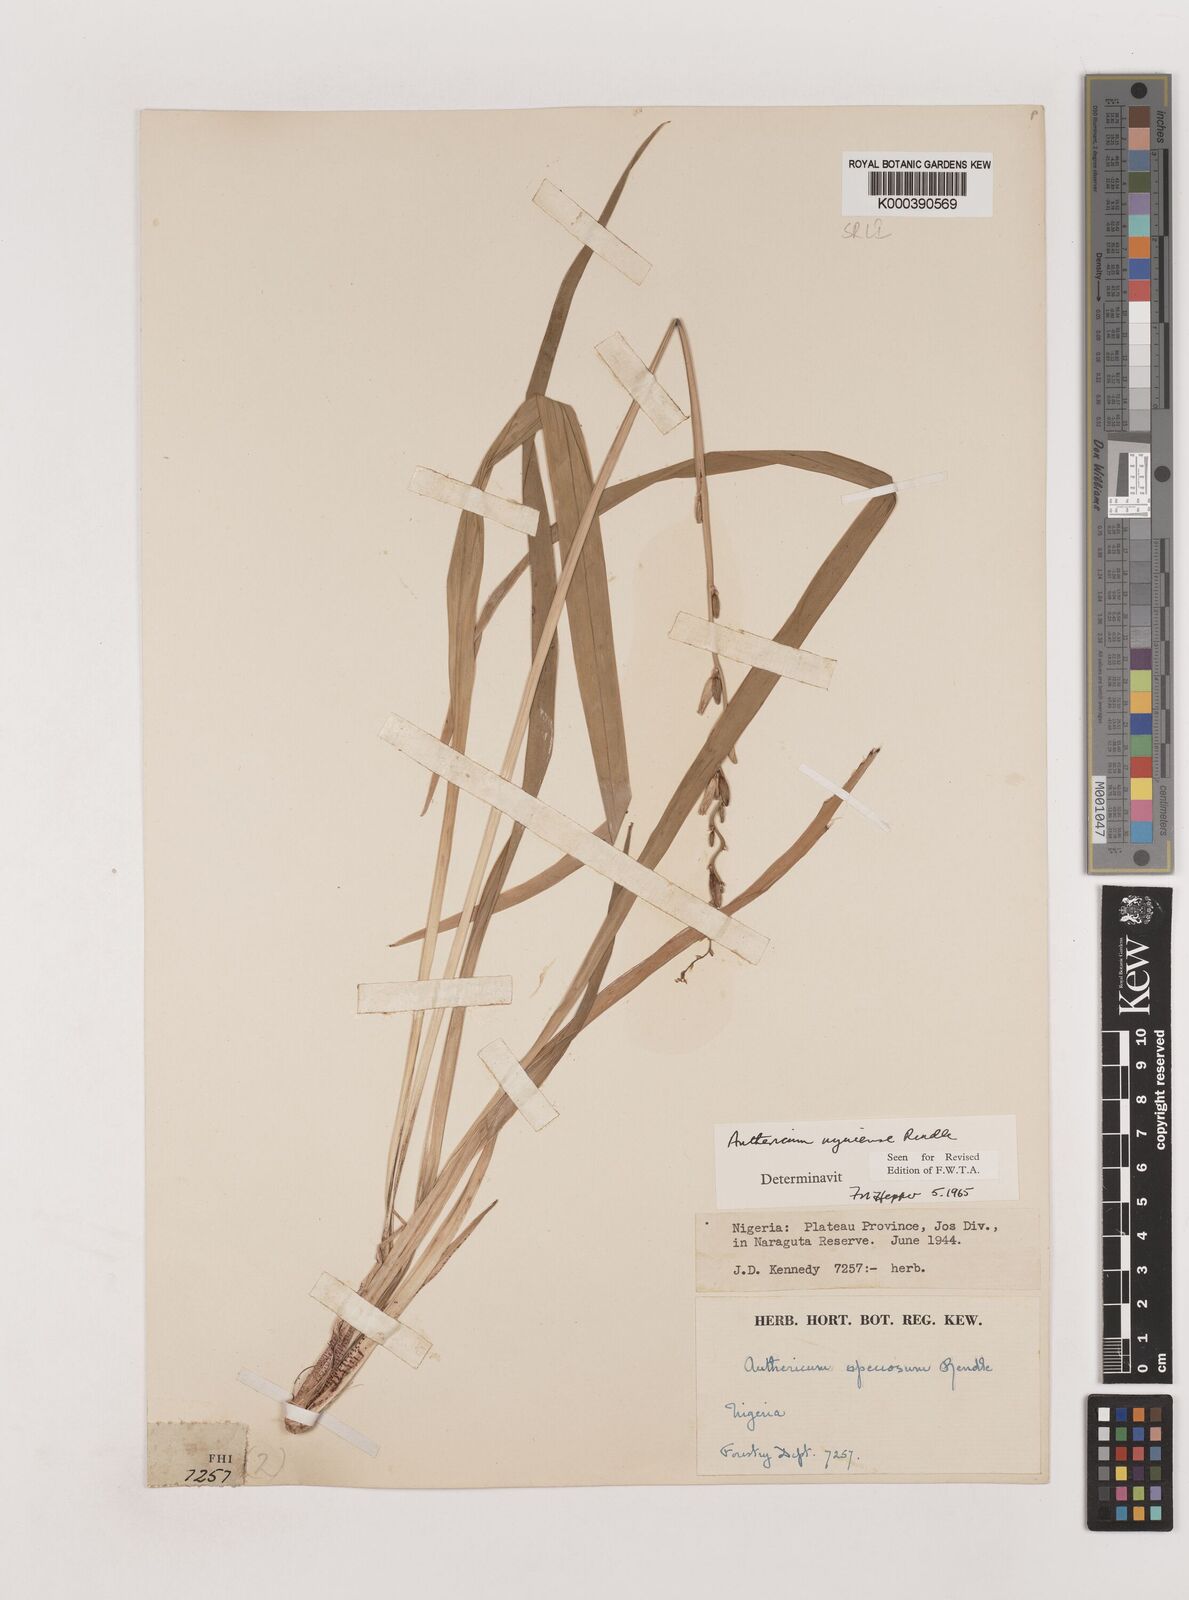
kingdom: Plantae
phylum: Tracheophyta
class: Liliopsida
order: Asparagales
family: Asparagaceae
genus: Chlorophytum
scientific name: Chlorophytum cameronii
